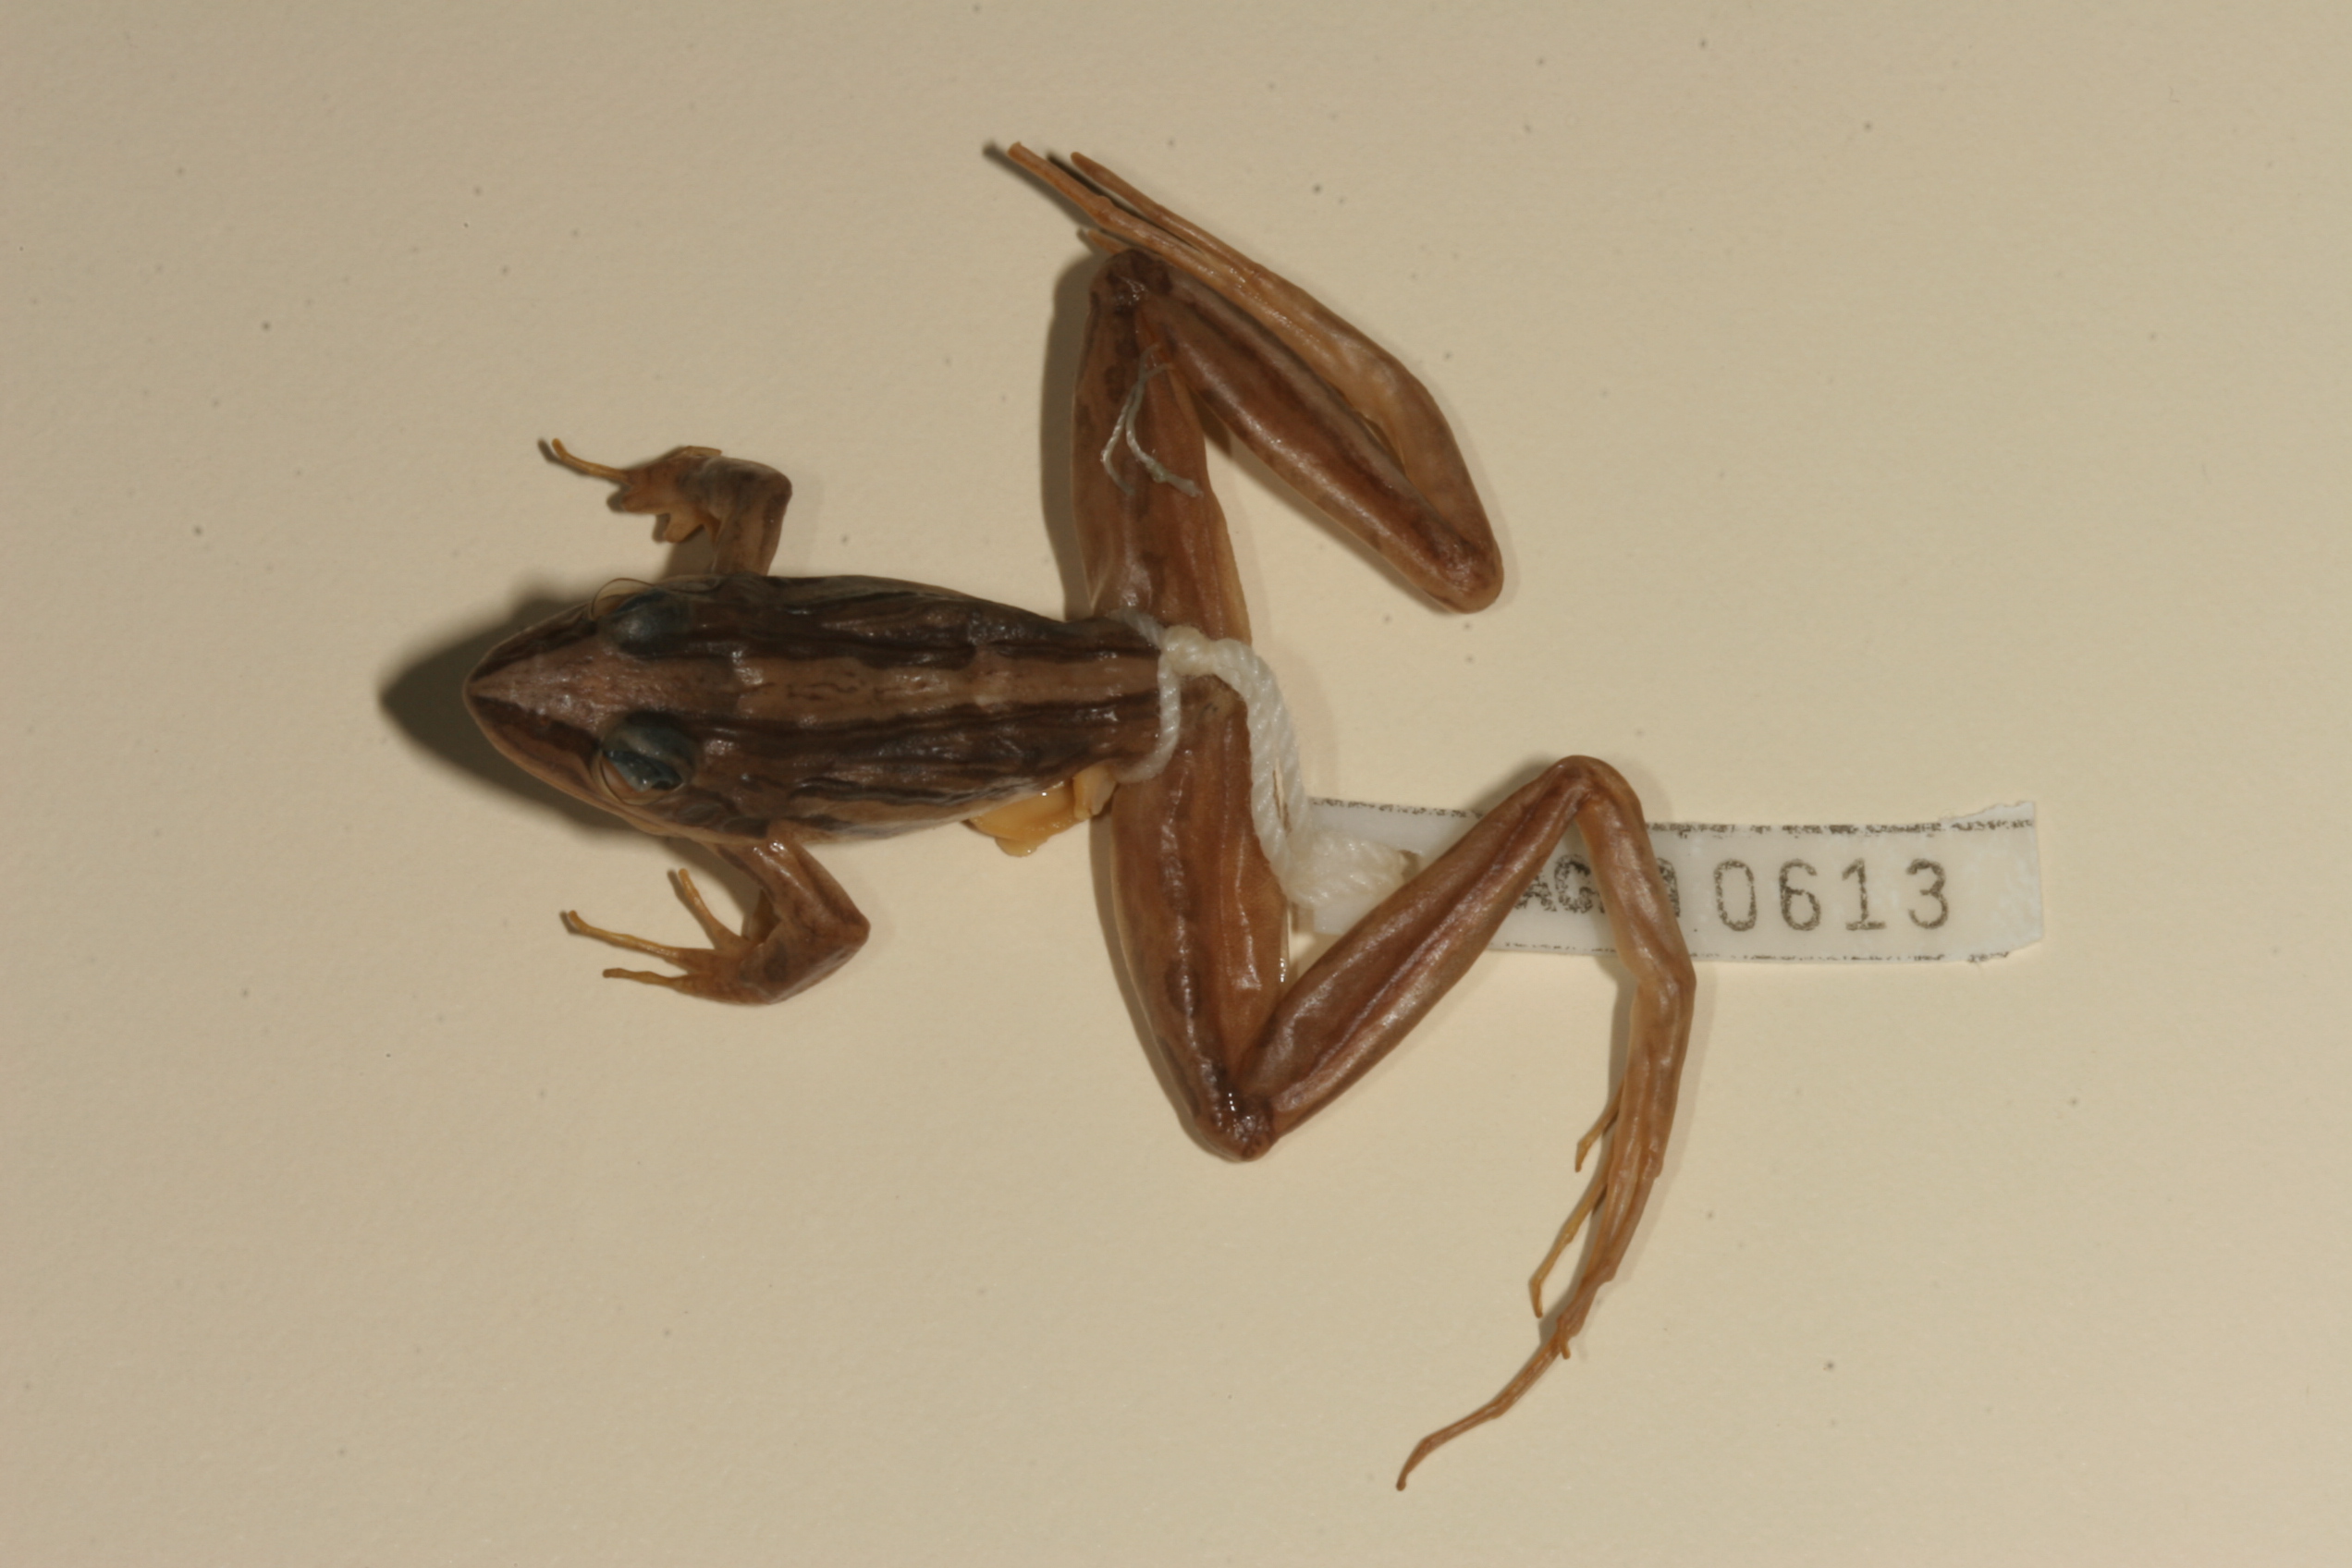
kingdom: Animalia
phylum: Chordata
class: Amphibia
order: Anura
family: Pyxicephalidae
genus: Strongylopus
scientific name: Strongylopus fasciatus
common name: Striped stream frog
